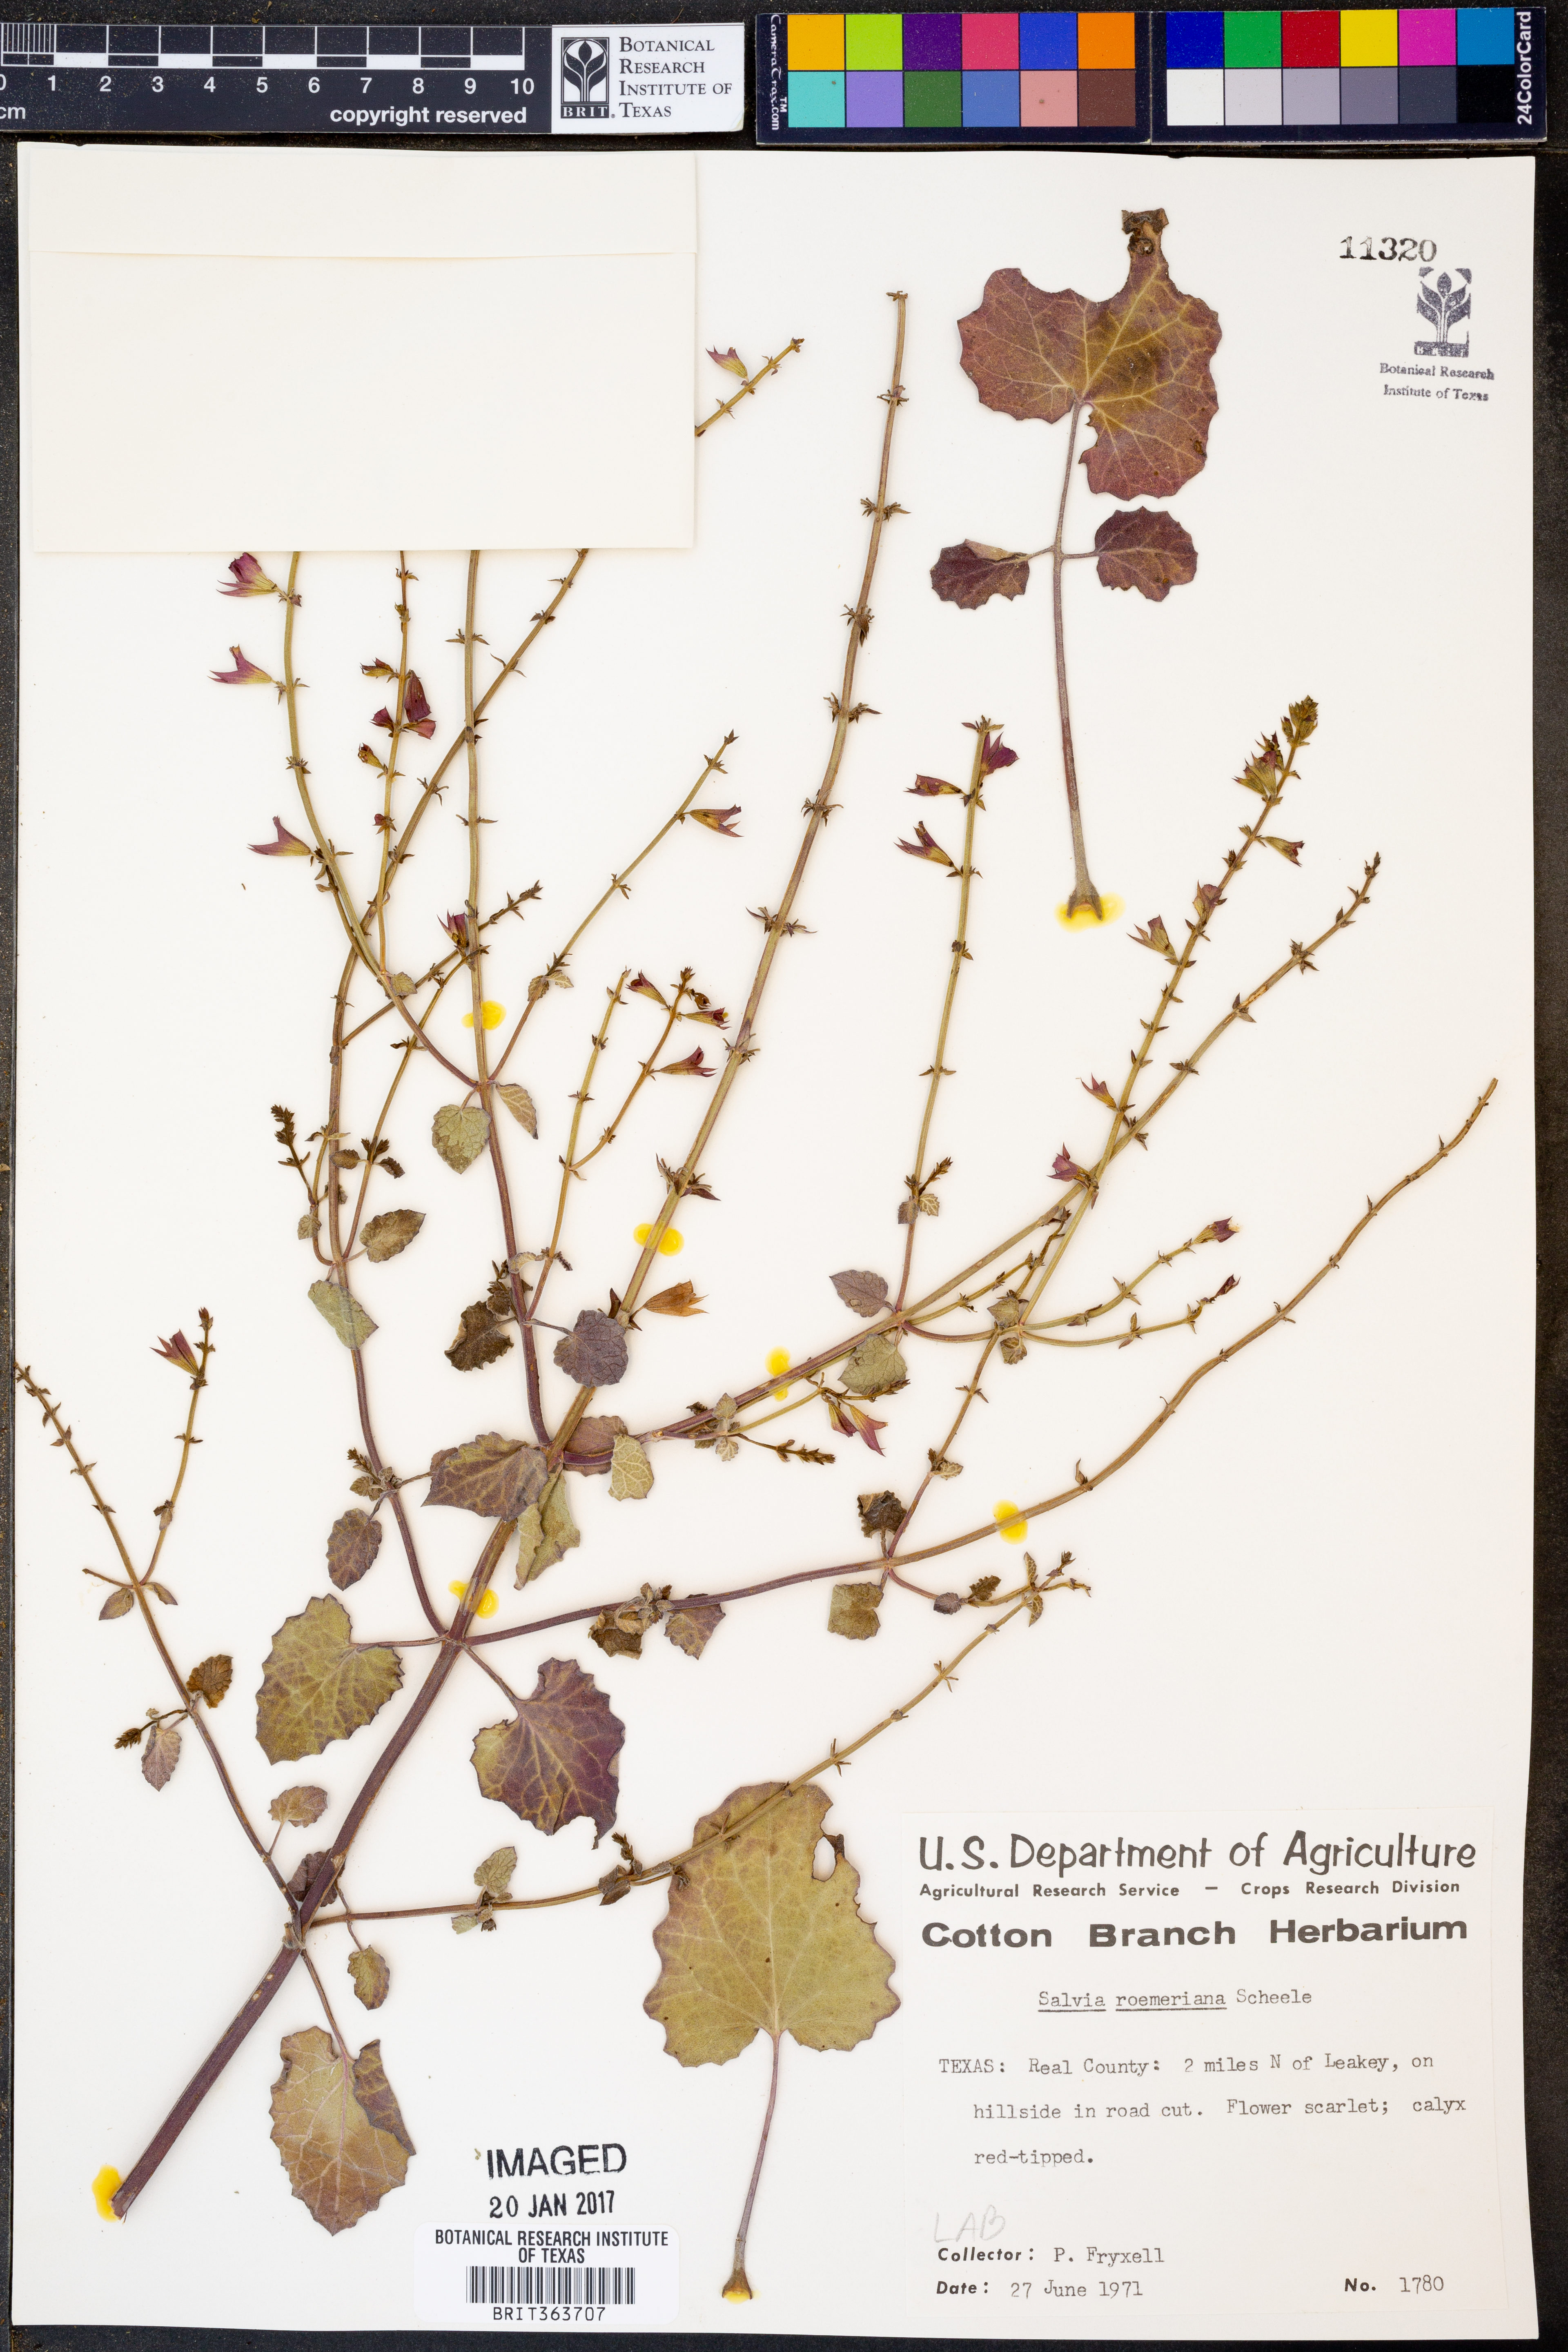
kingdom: Plantae
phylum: Tracheophyta
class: Magnoliopsida
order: Lamiales
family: Lamiaceae
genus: Salvia
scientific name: Salvia roemeriana
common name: Cedar sage
